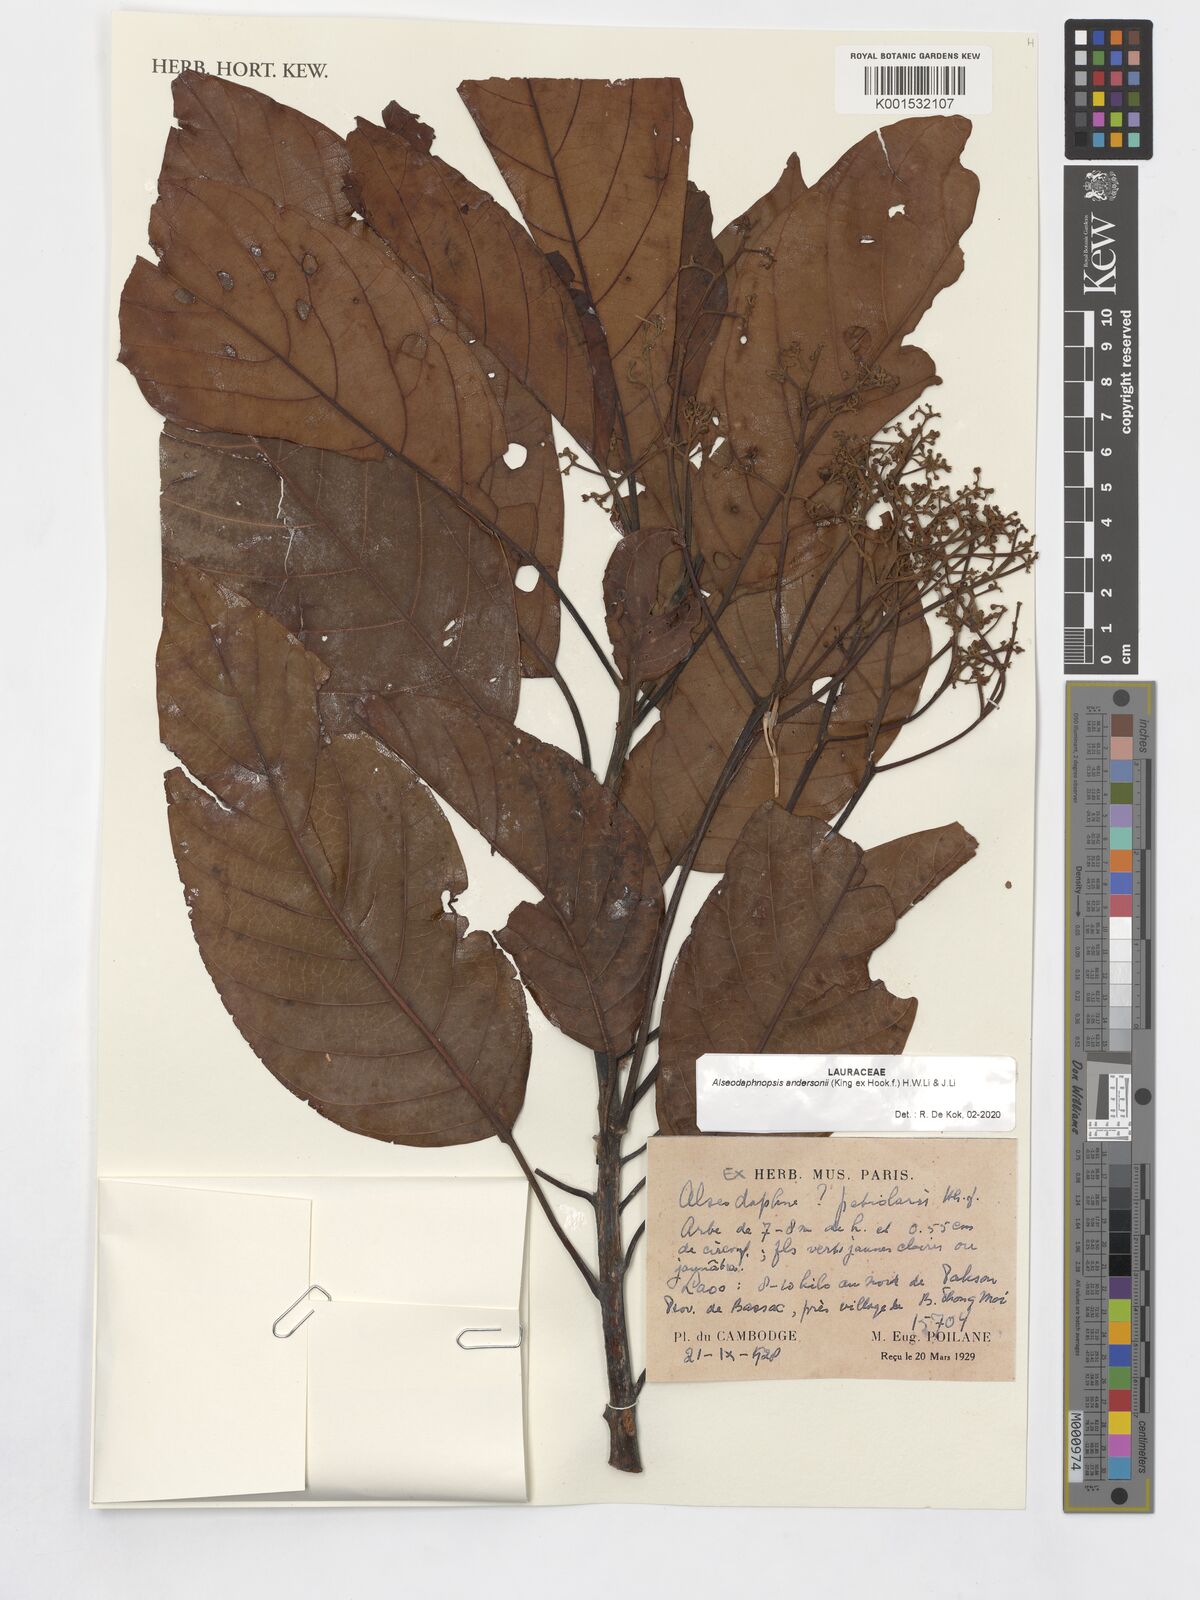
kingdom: Plantae
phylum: Tracheophyta
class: Magnoliopsida
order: Laurales
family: Lauraceae
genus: Alseodaphnopsis
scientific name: Alseodaphnopsis andersonii
